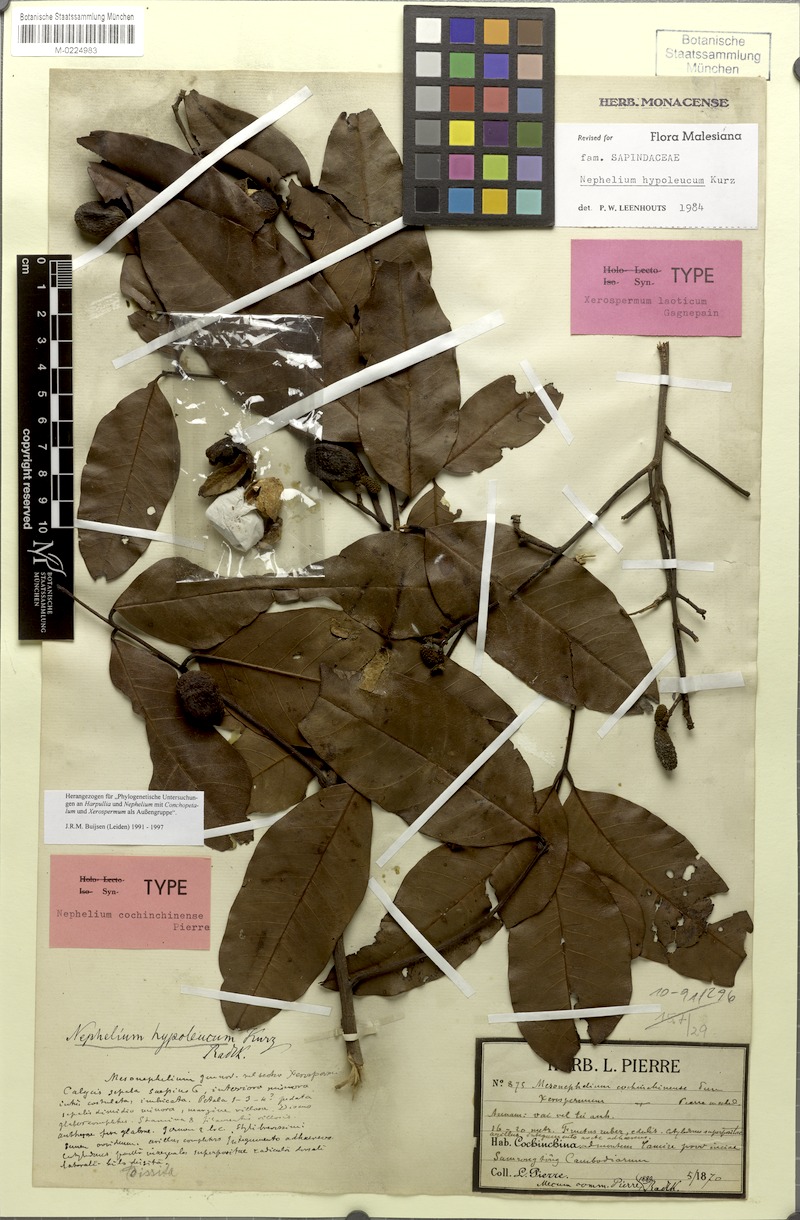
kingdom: Plantae
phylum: Tracheophyta
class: Magnoliopsida
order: Sapindales
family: Sapindaceae
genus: Nephelium
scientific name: Nephelium hypoleucum
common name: Korlan
